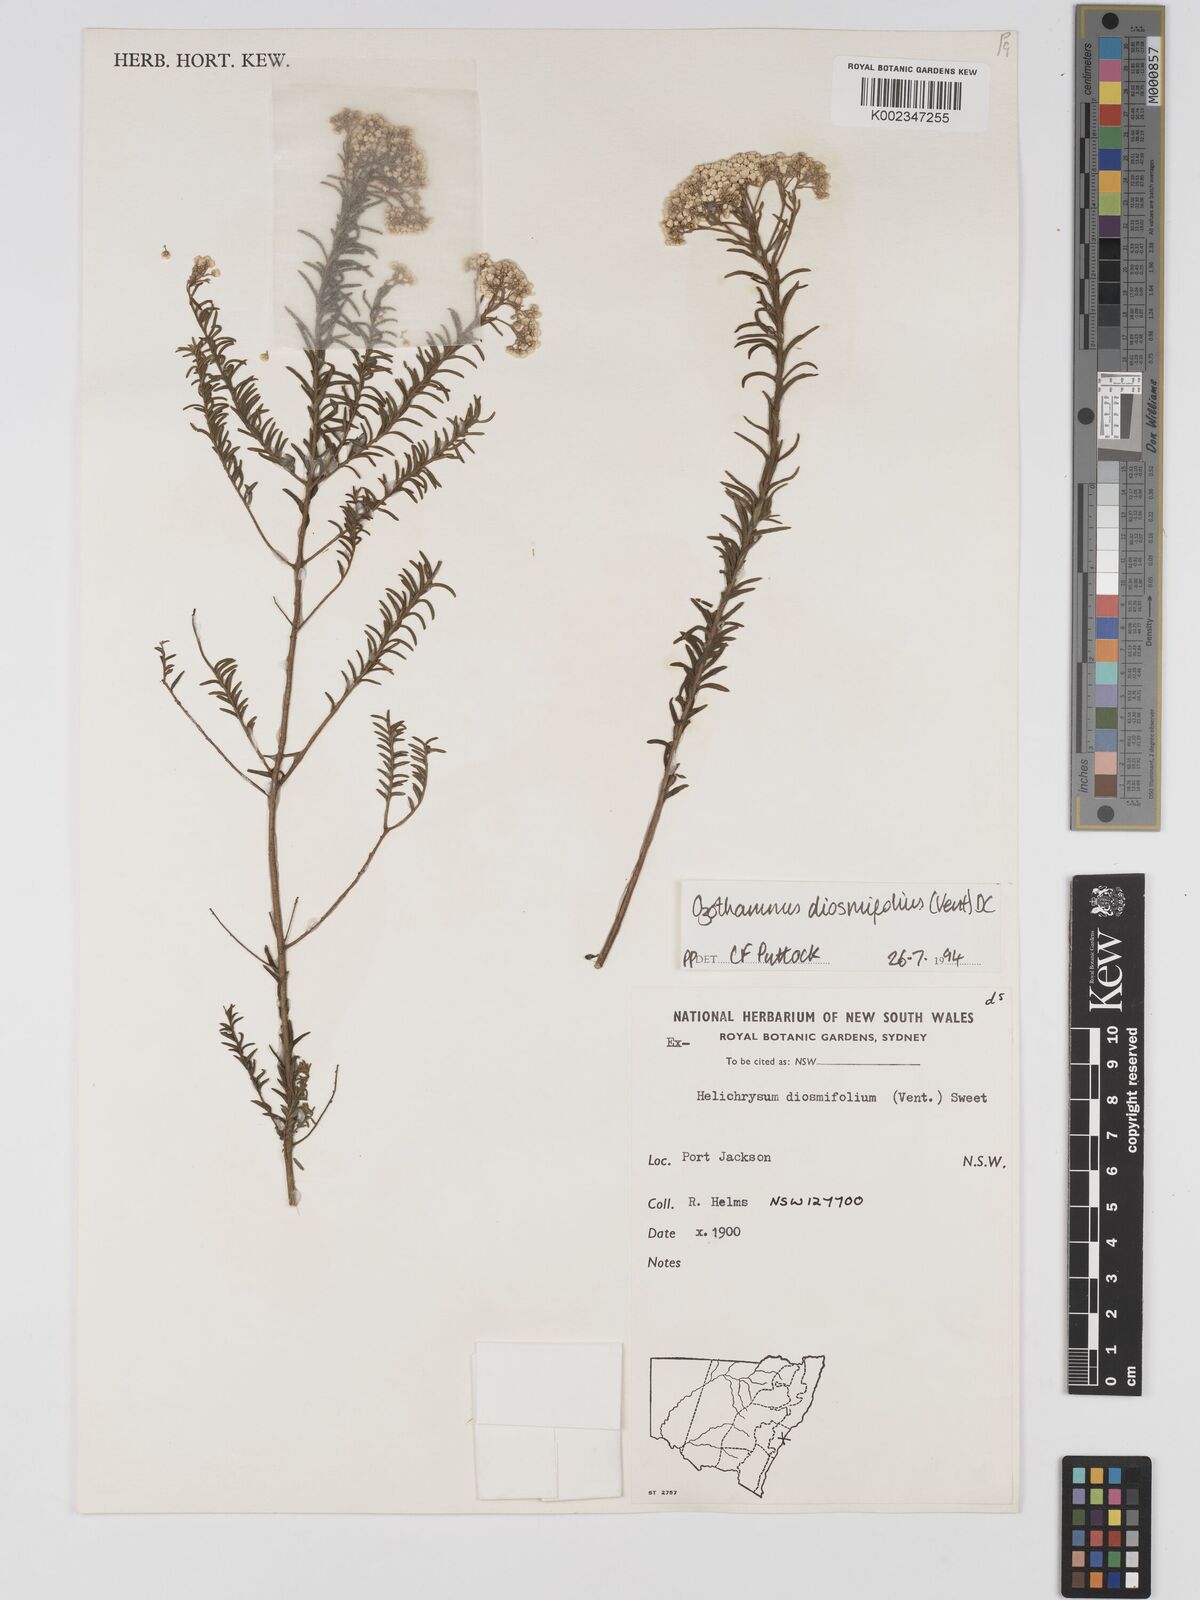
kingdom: Plantae
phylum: Tracheophyta
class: Magnoliopsida
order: Asterales
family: Asteraceae
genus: Ozothamnus
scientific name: Ozothamnus diosmifolius
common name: White-dogwood
